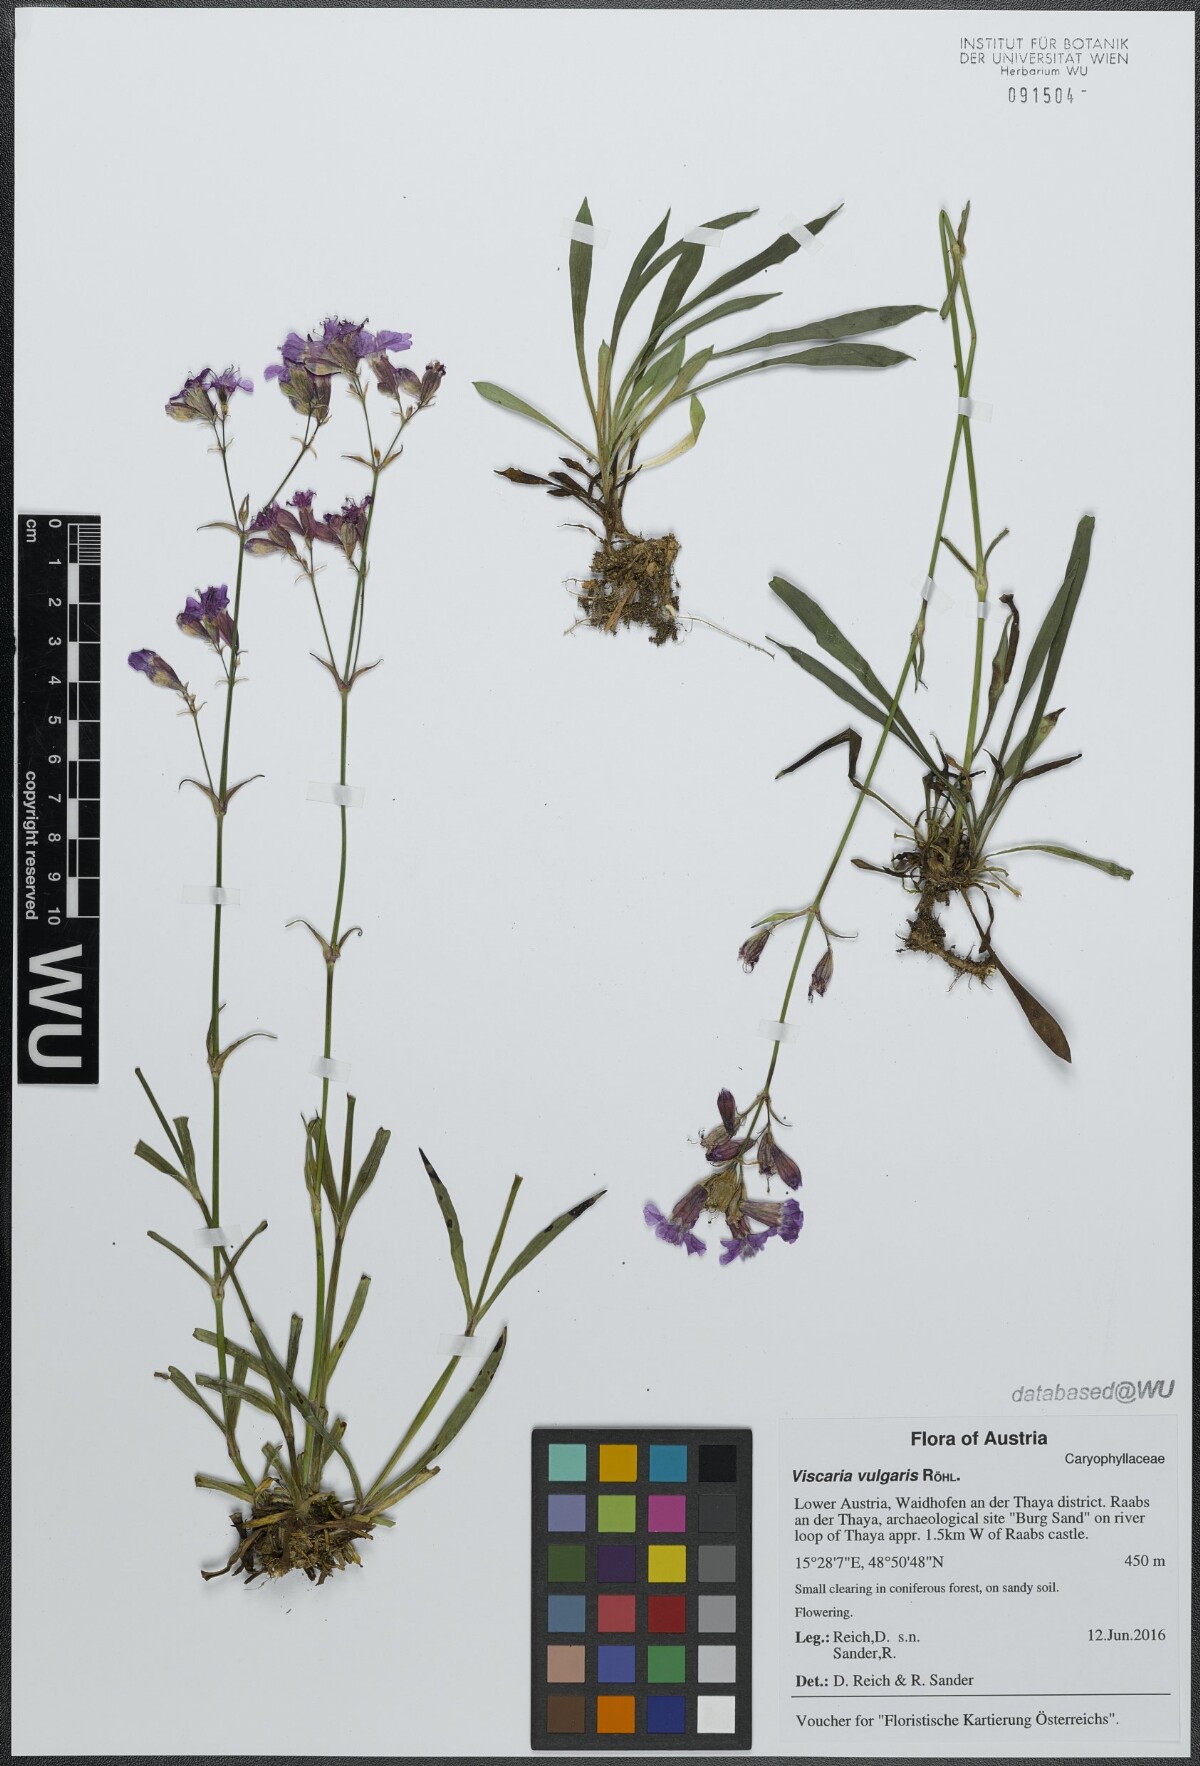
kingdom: Plantae
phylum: Tracheophyta
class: Magnoliopsida
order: Caryophyllales
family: Caryophyllaceae
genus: Viscaria
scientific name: Viscaria vulgaris
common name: Clammy campion
